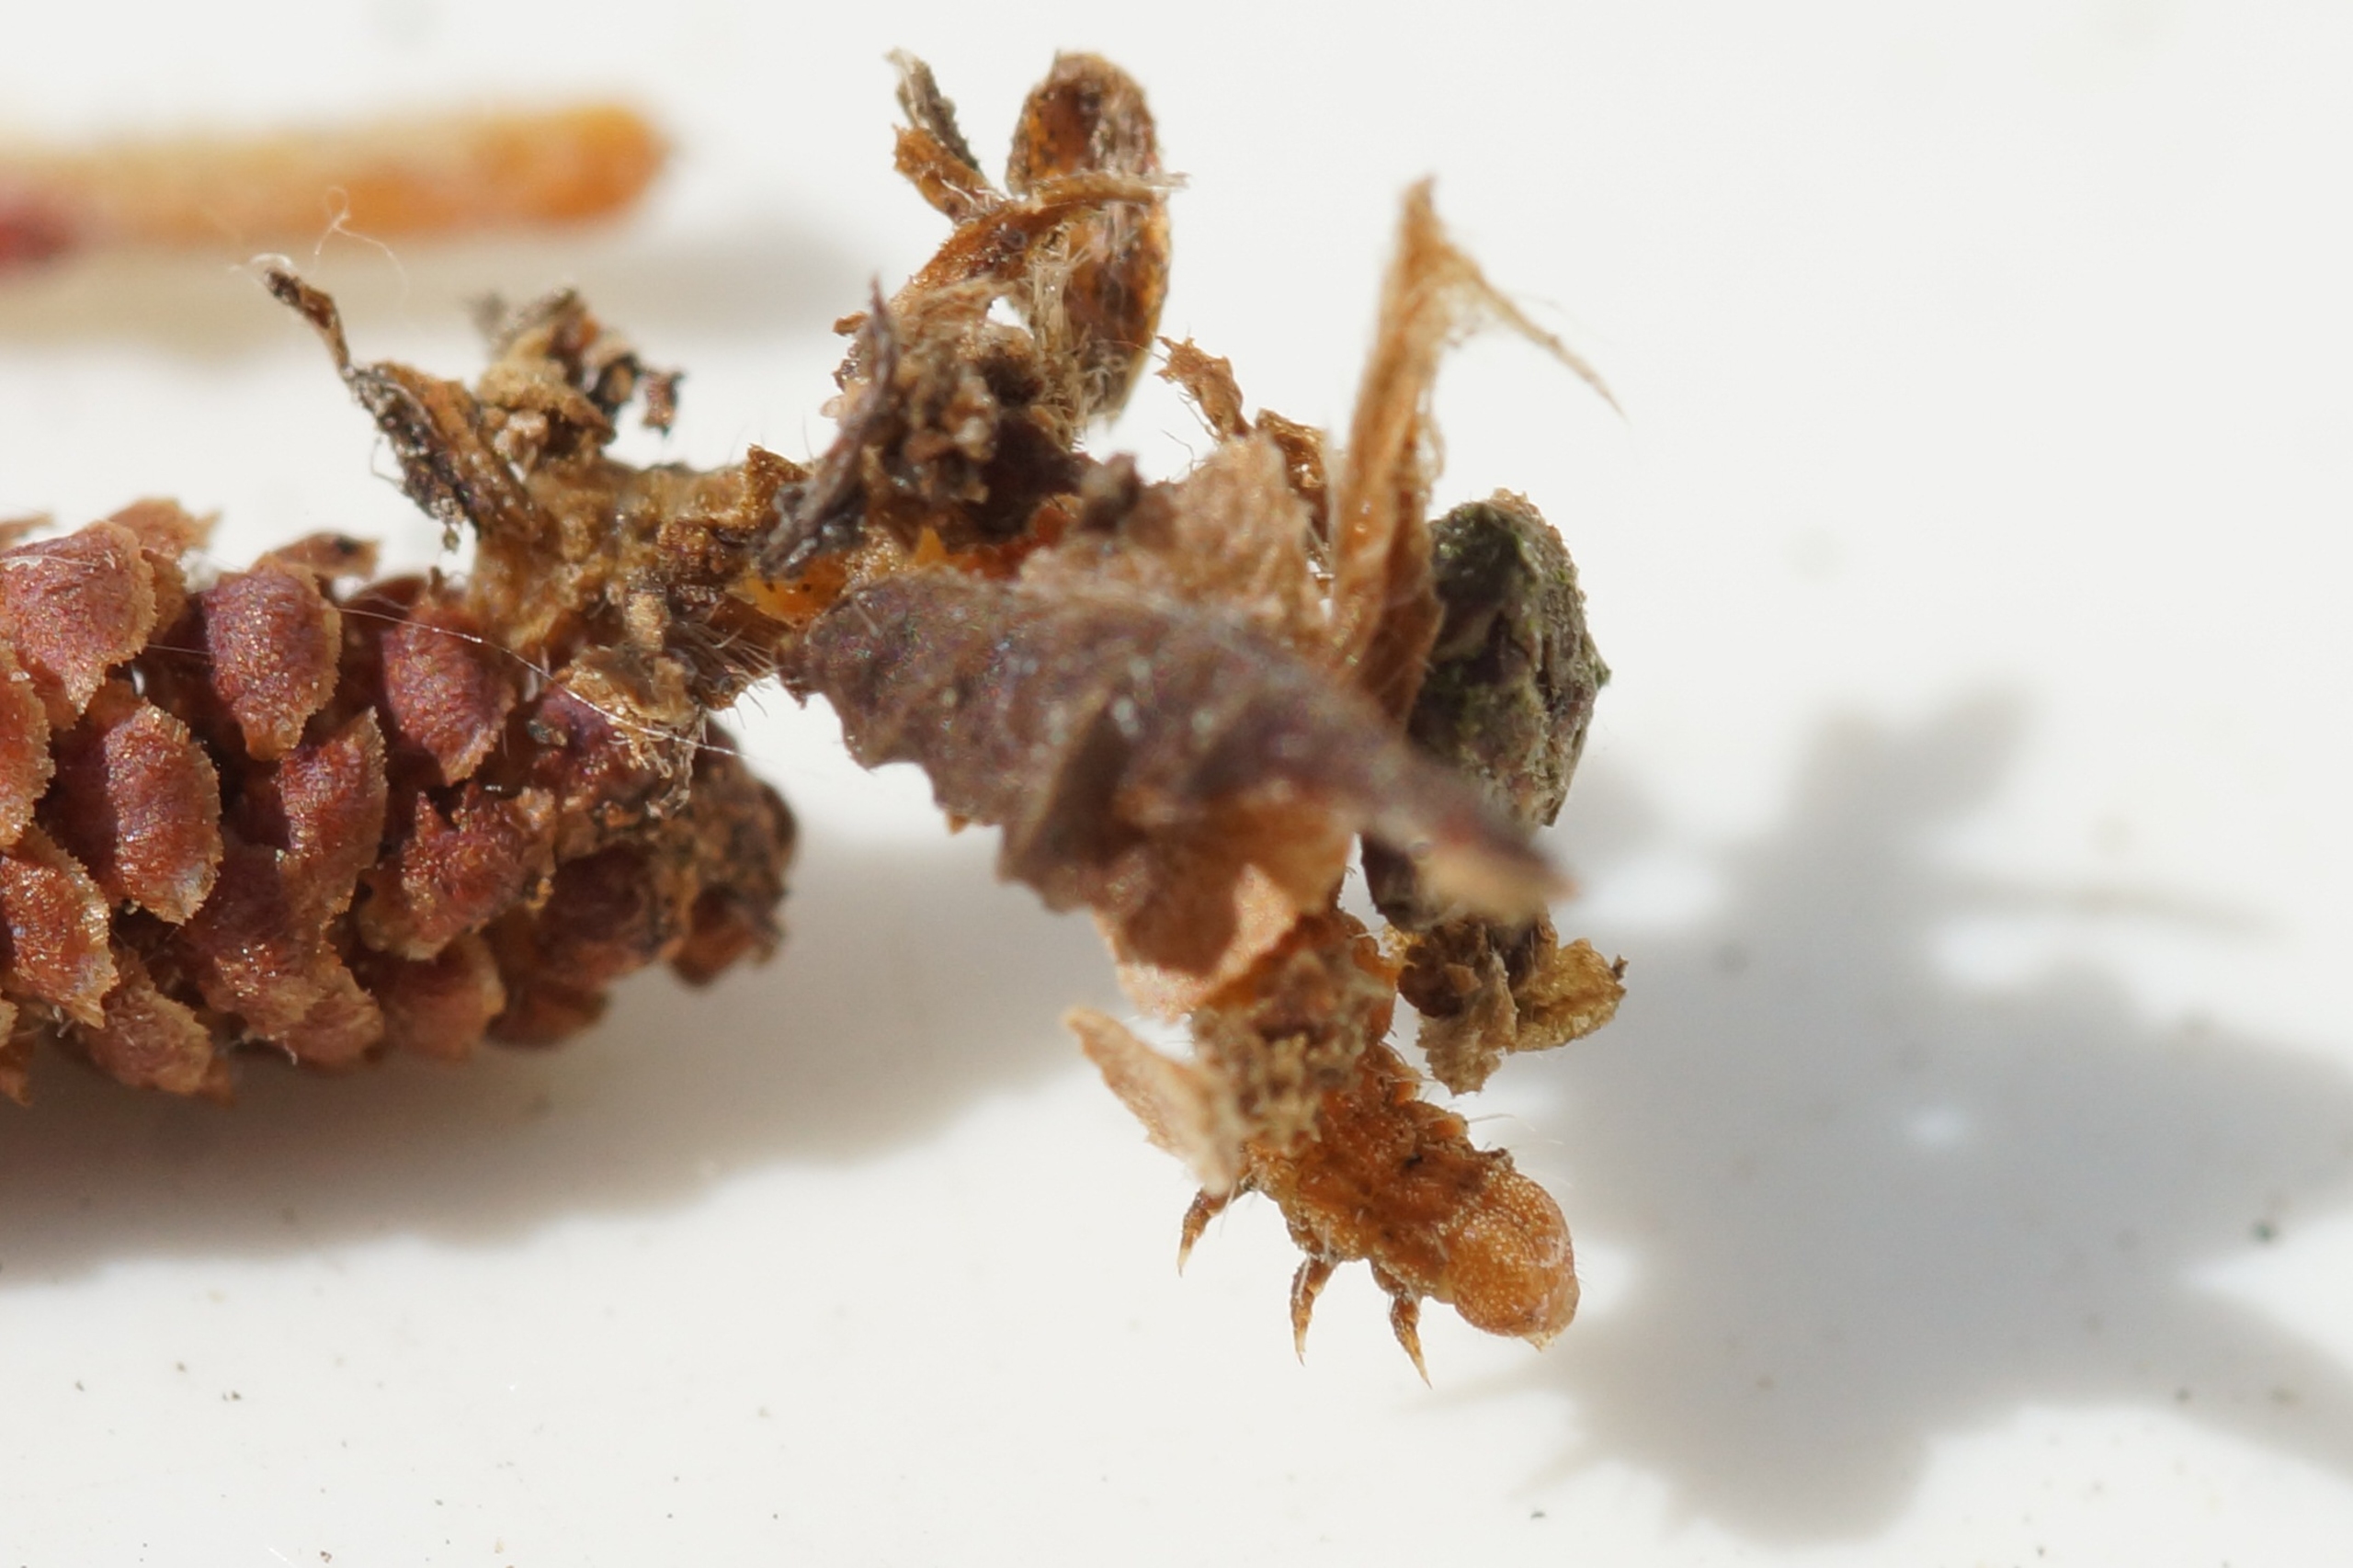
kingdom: Animalia
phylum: Arthropoda
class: Insecta
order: Lepidoptera
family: Geometridae
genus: Comibaena
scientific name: Comibaena bajularia
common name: Måneplettet måler
